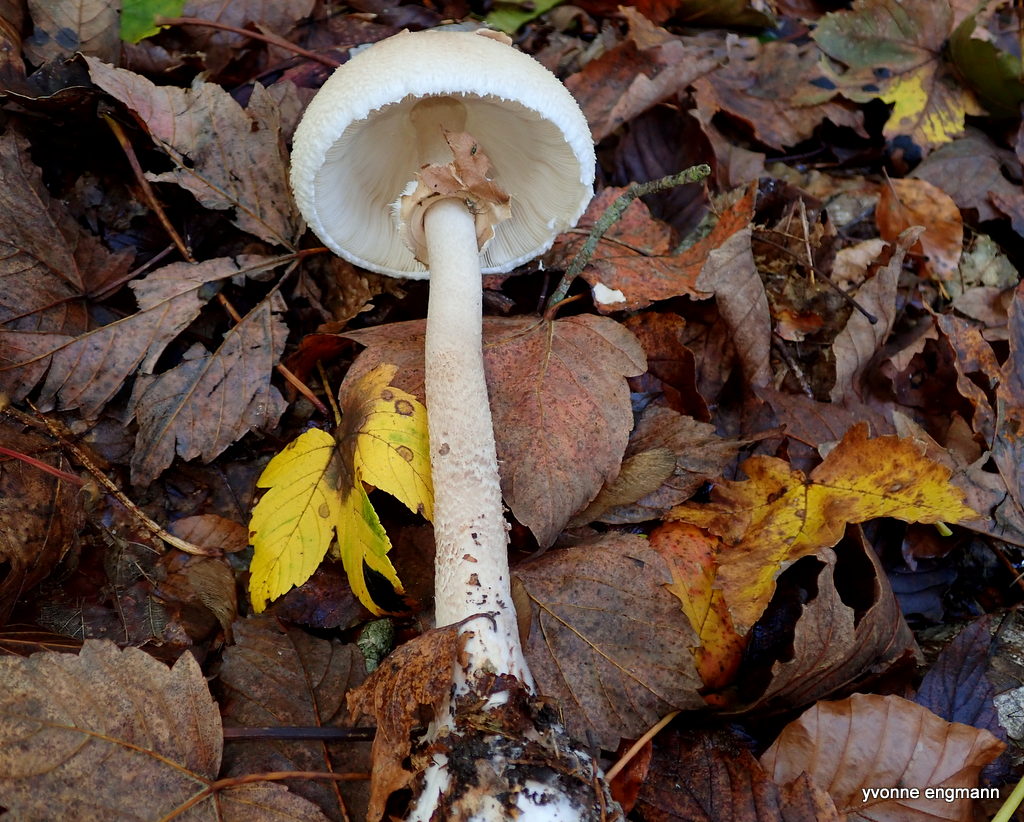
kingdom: Fungi
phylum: Basidiomycota
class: Agaricomycetes
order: Agaricales
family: Agaricaceae
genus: Macrolepiota
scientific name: Macrolepiota mastoidea
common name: puklet kæmpeparasolhat
